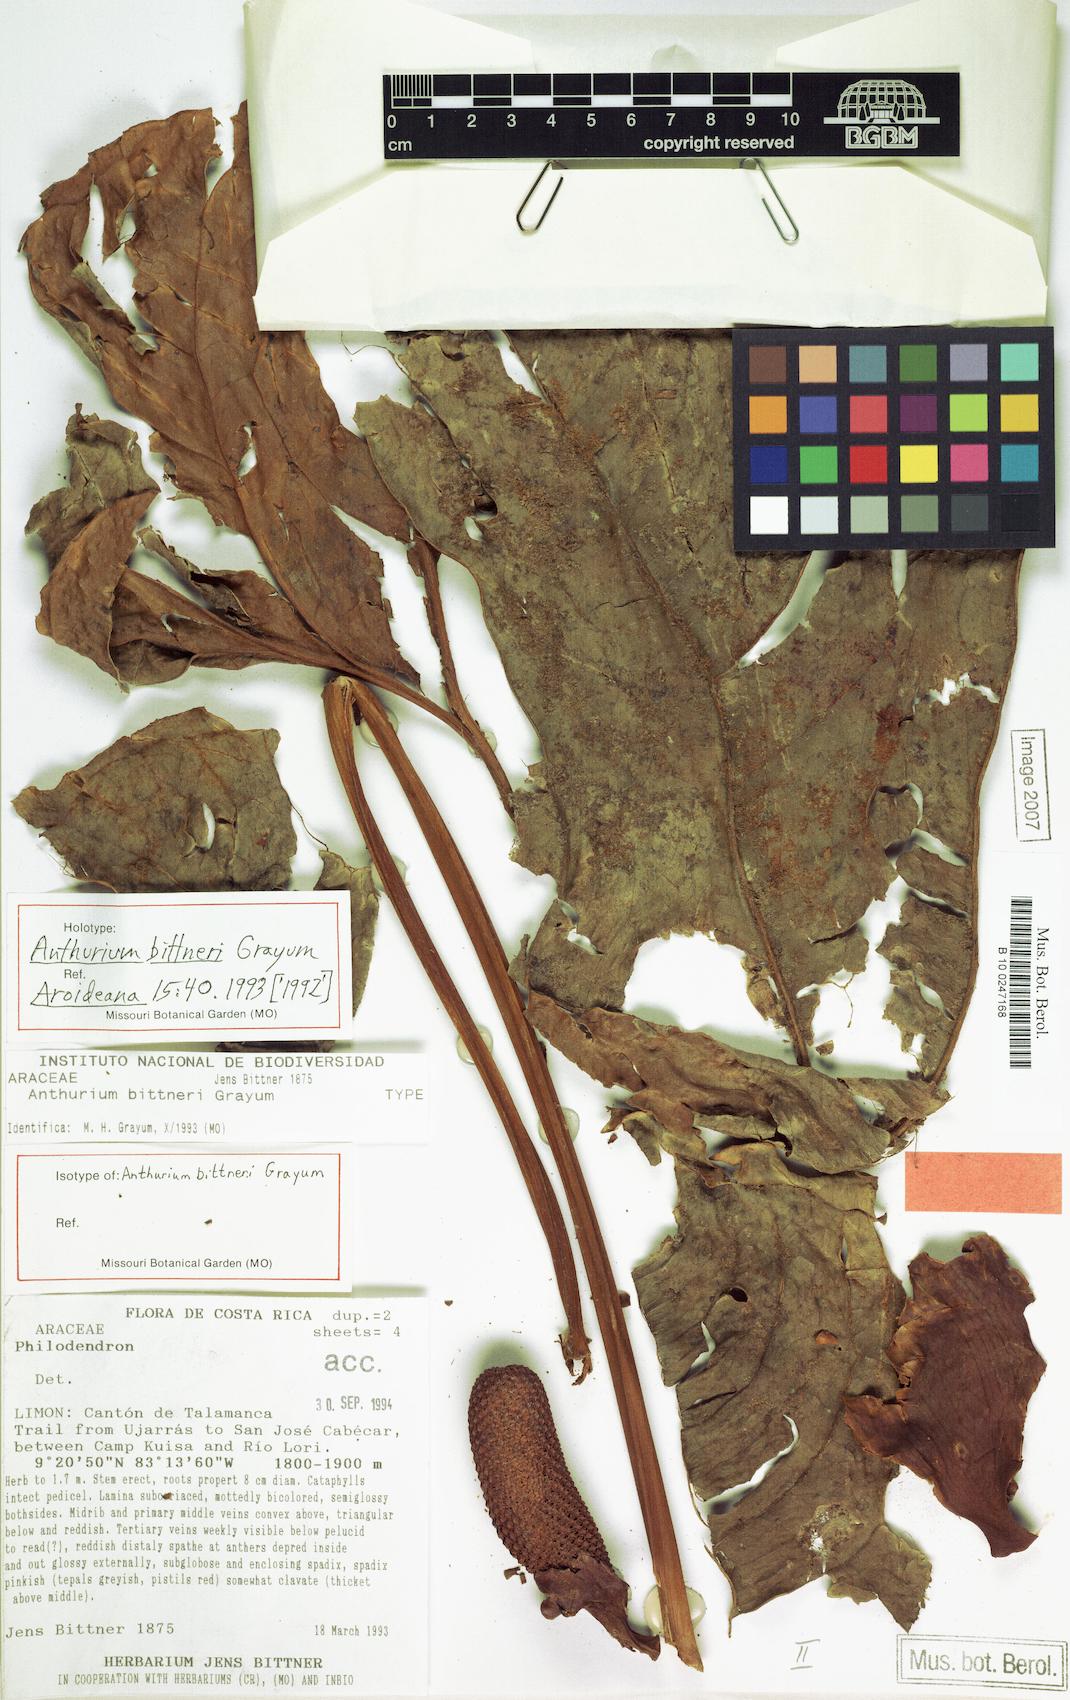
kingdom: Plantae
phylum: Tracheophyta
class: Liliopsida
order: Alismatales
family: Araceae
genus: Anthurium
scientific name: Anthurium bittneri
